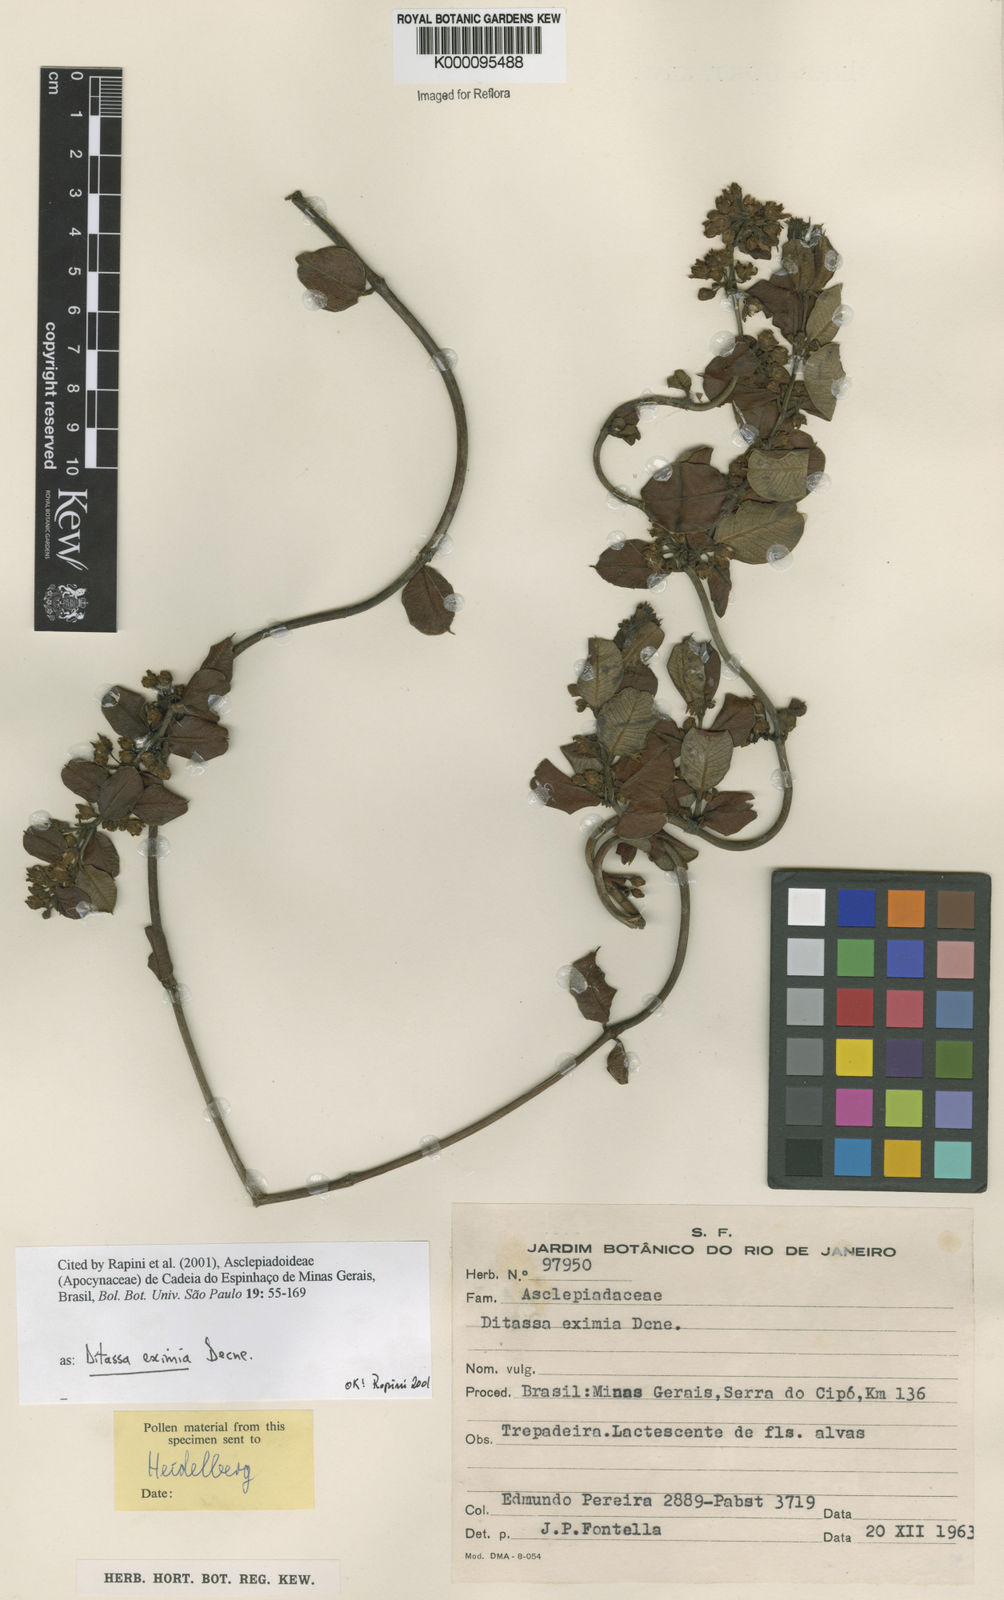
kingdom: Plantae
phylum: Tracheophyta
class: Magnoliopsida
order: Gentianales
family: Apocynaceae
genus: Ditassa
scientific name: Ditassa eximia
